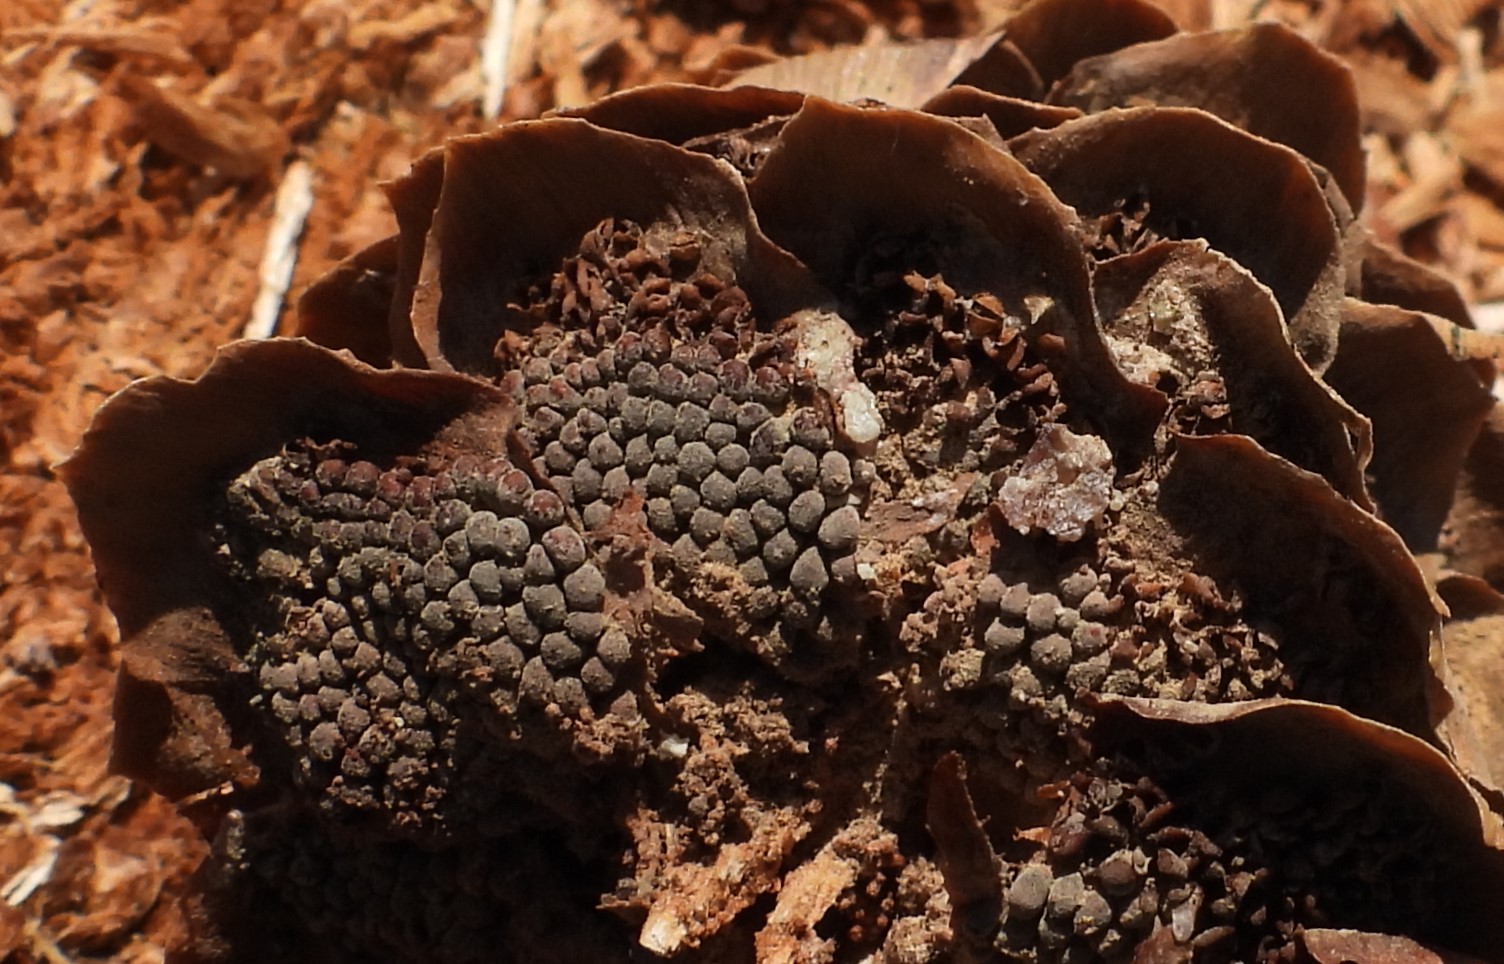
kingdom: Fungi
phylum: Basidiomycota
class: Pucciniomycetes
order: Pucciniales
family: Pucciniastraceae
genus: Thekopsora
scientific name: Thekopsora areolata
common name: grankogle-nålerust
